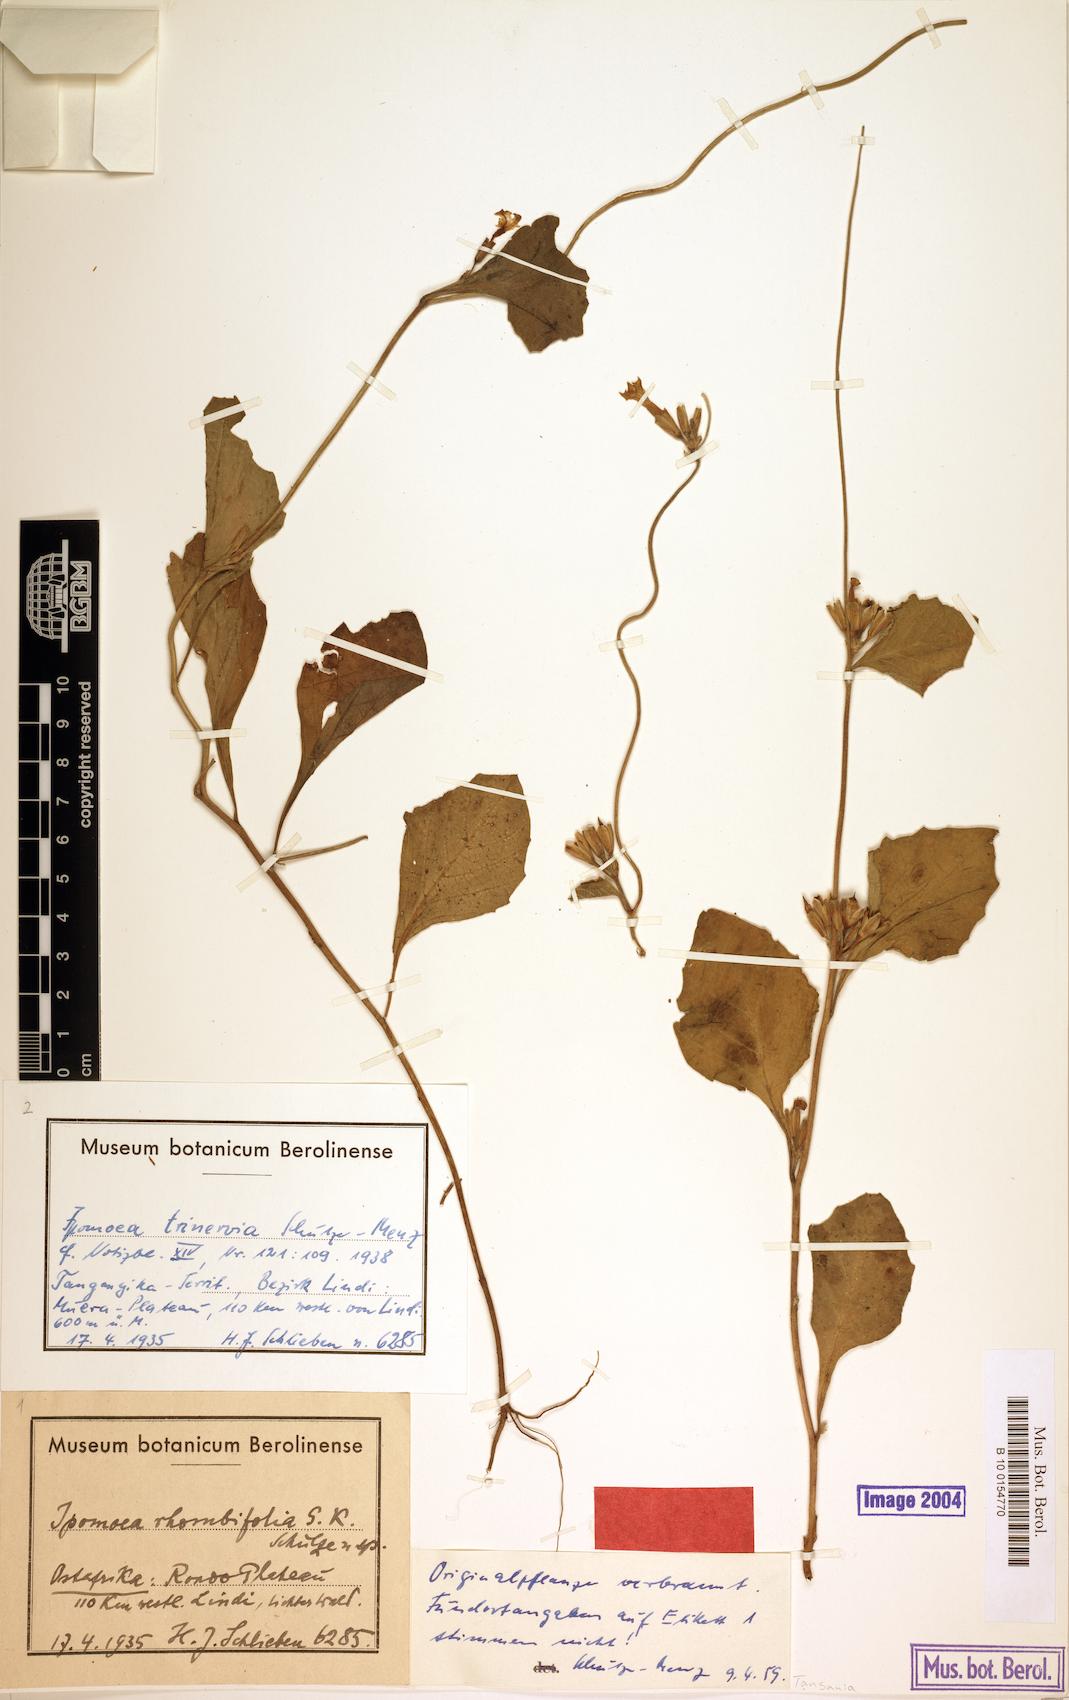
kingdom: Plantae
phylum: Tracheophyta
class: Magnoliopsida
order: Solanales
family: Convolvulaceae
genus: Ipomoea
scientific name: Ipomoea trinervia
